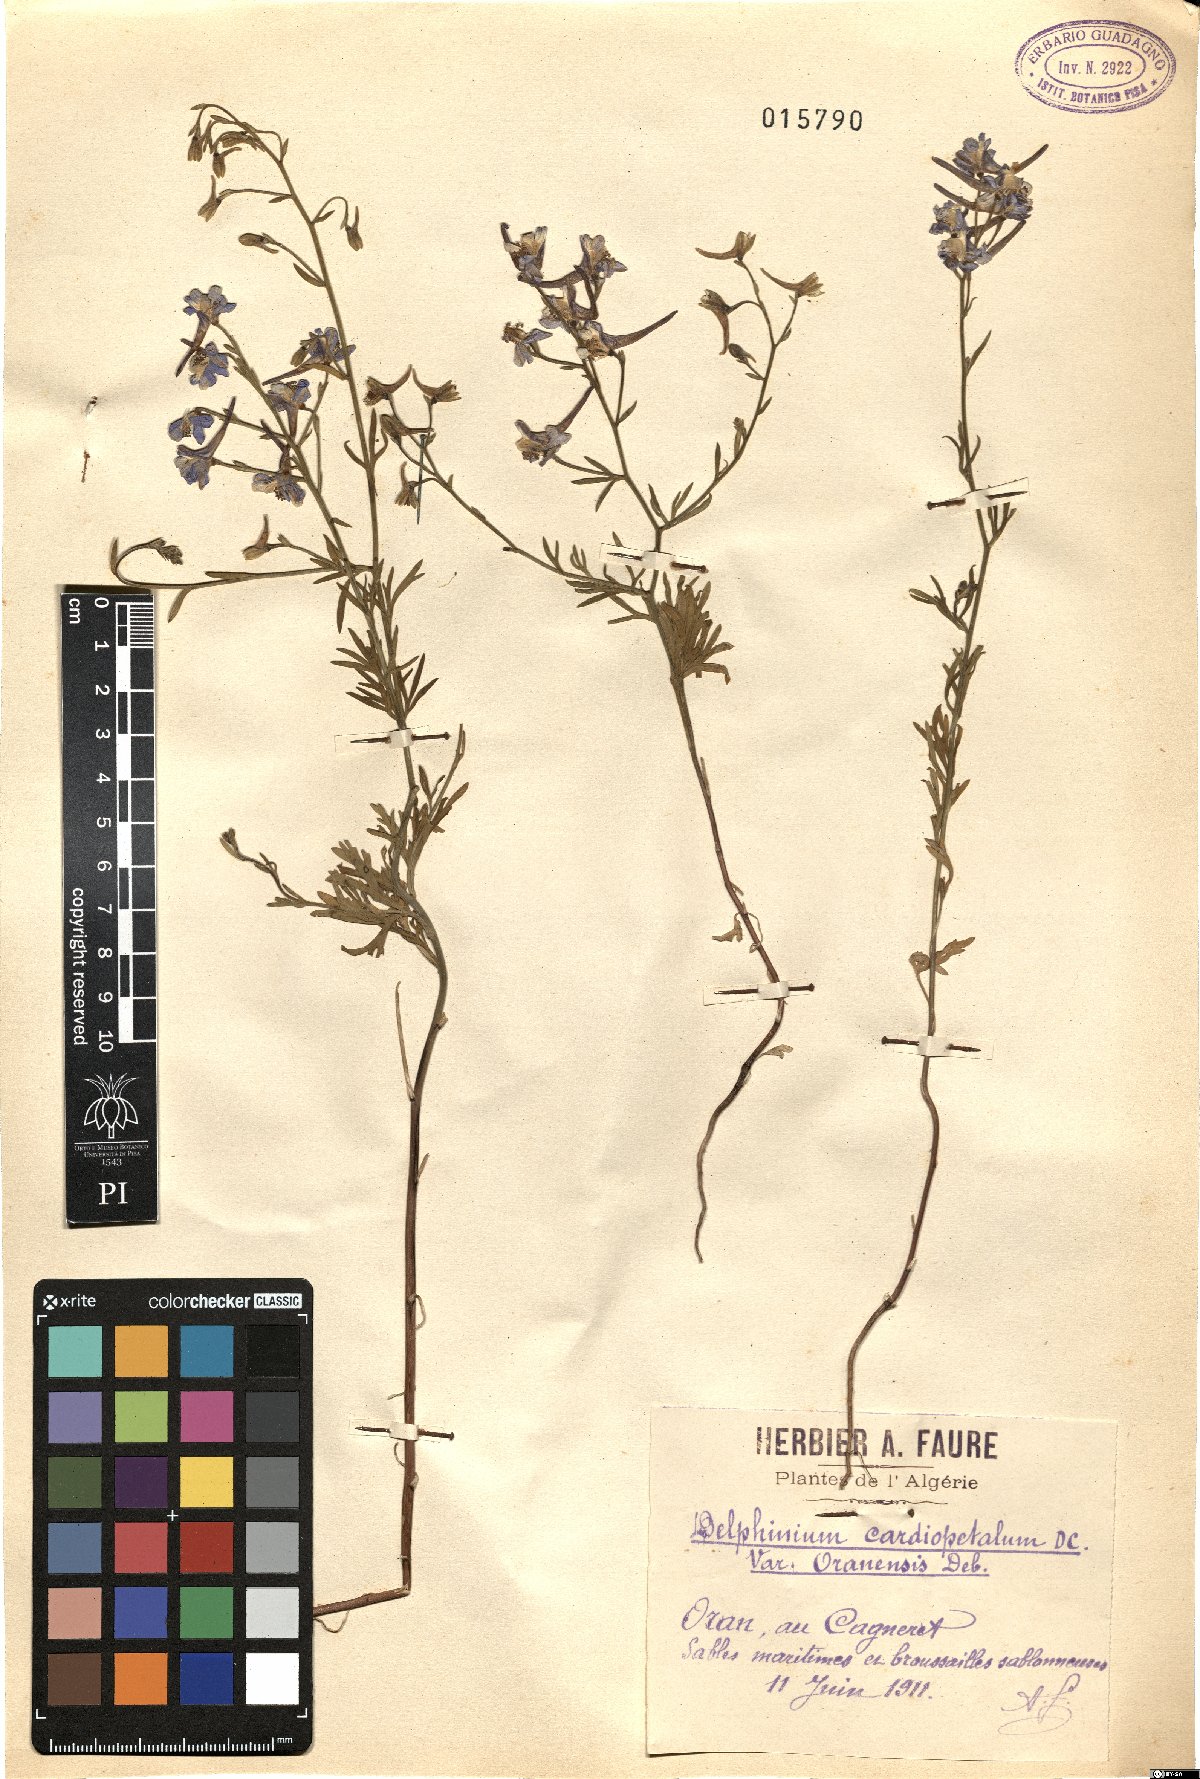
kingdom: Plantae
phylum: Tracheophyta
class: Magnoliopsida
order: Ranunculales
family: Ranunculaceae
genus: Delphinium
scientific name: Delphinium obcordatum
